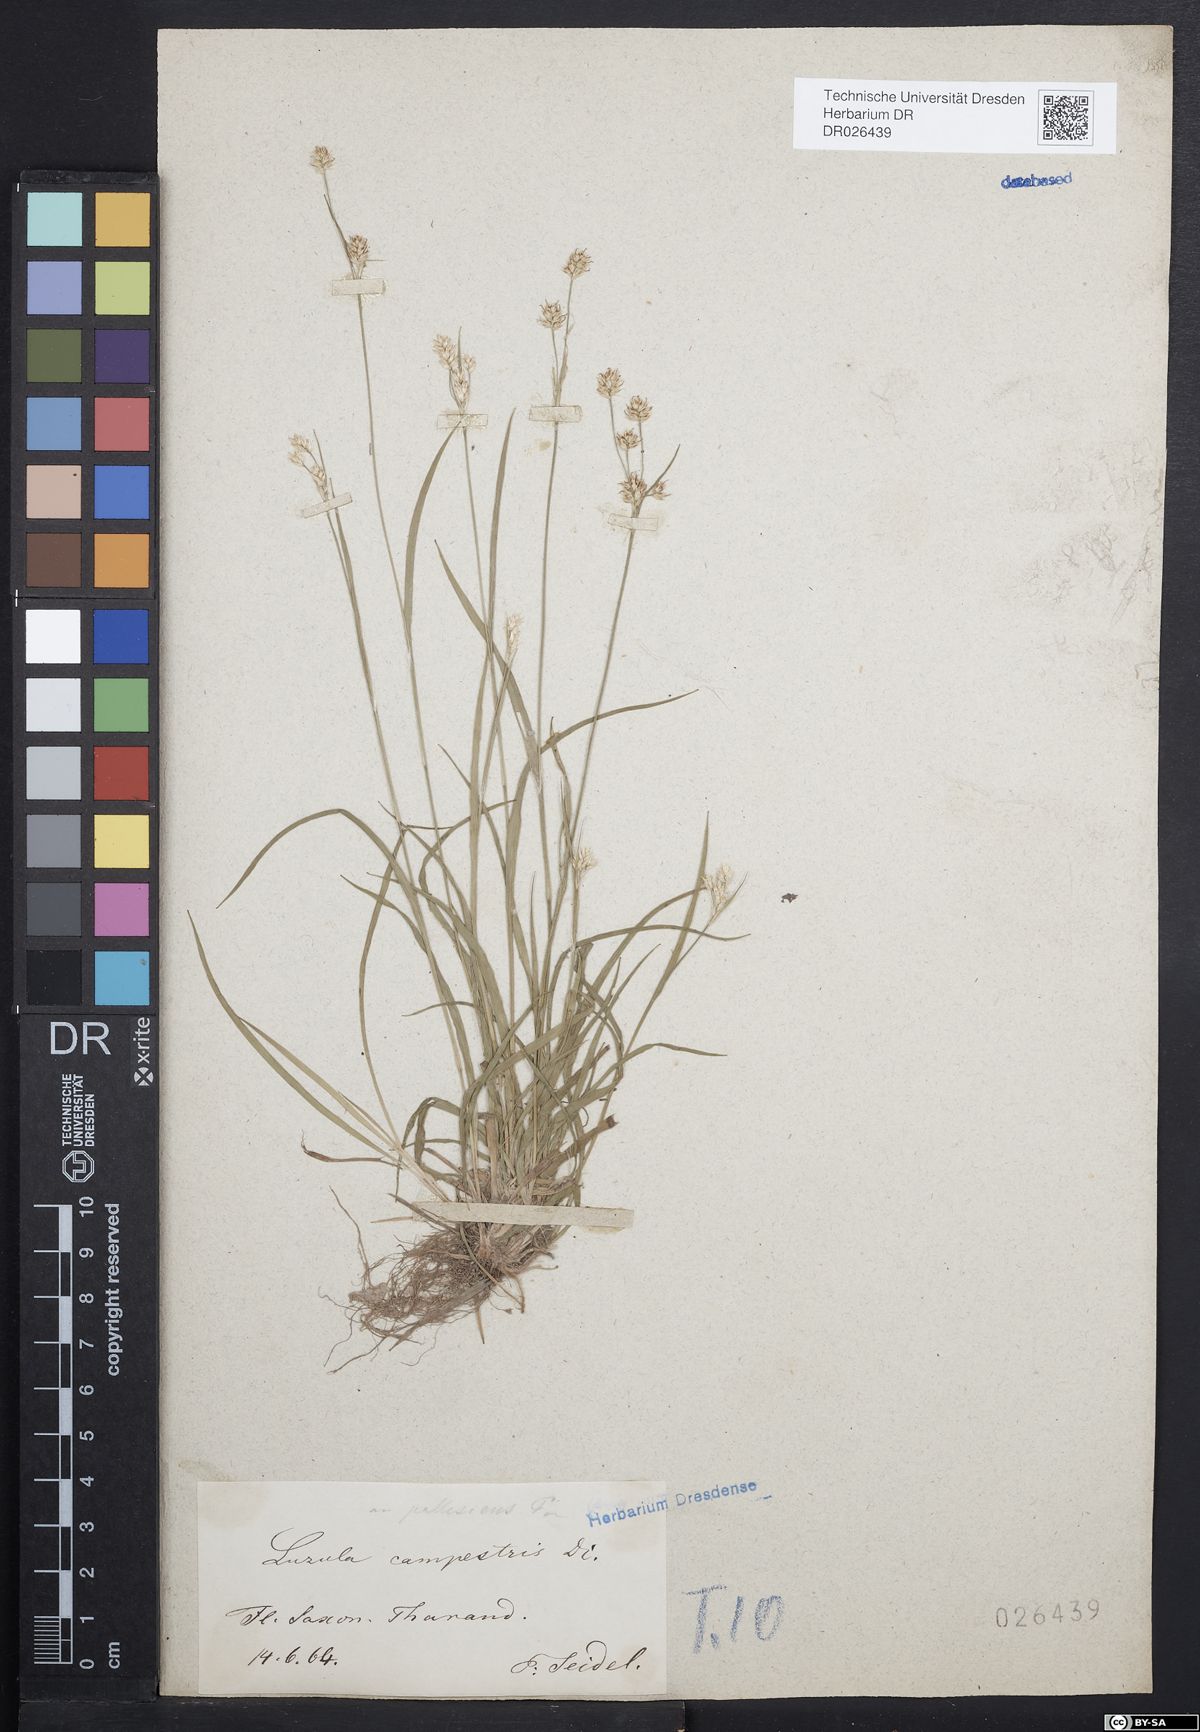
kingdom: Plantae
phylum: Tracheophyta
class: Liliopsida
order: Poales
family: Juncaceae
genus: Luzula
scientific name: Luzula multiflora
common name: Heath wood-rush
